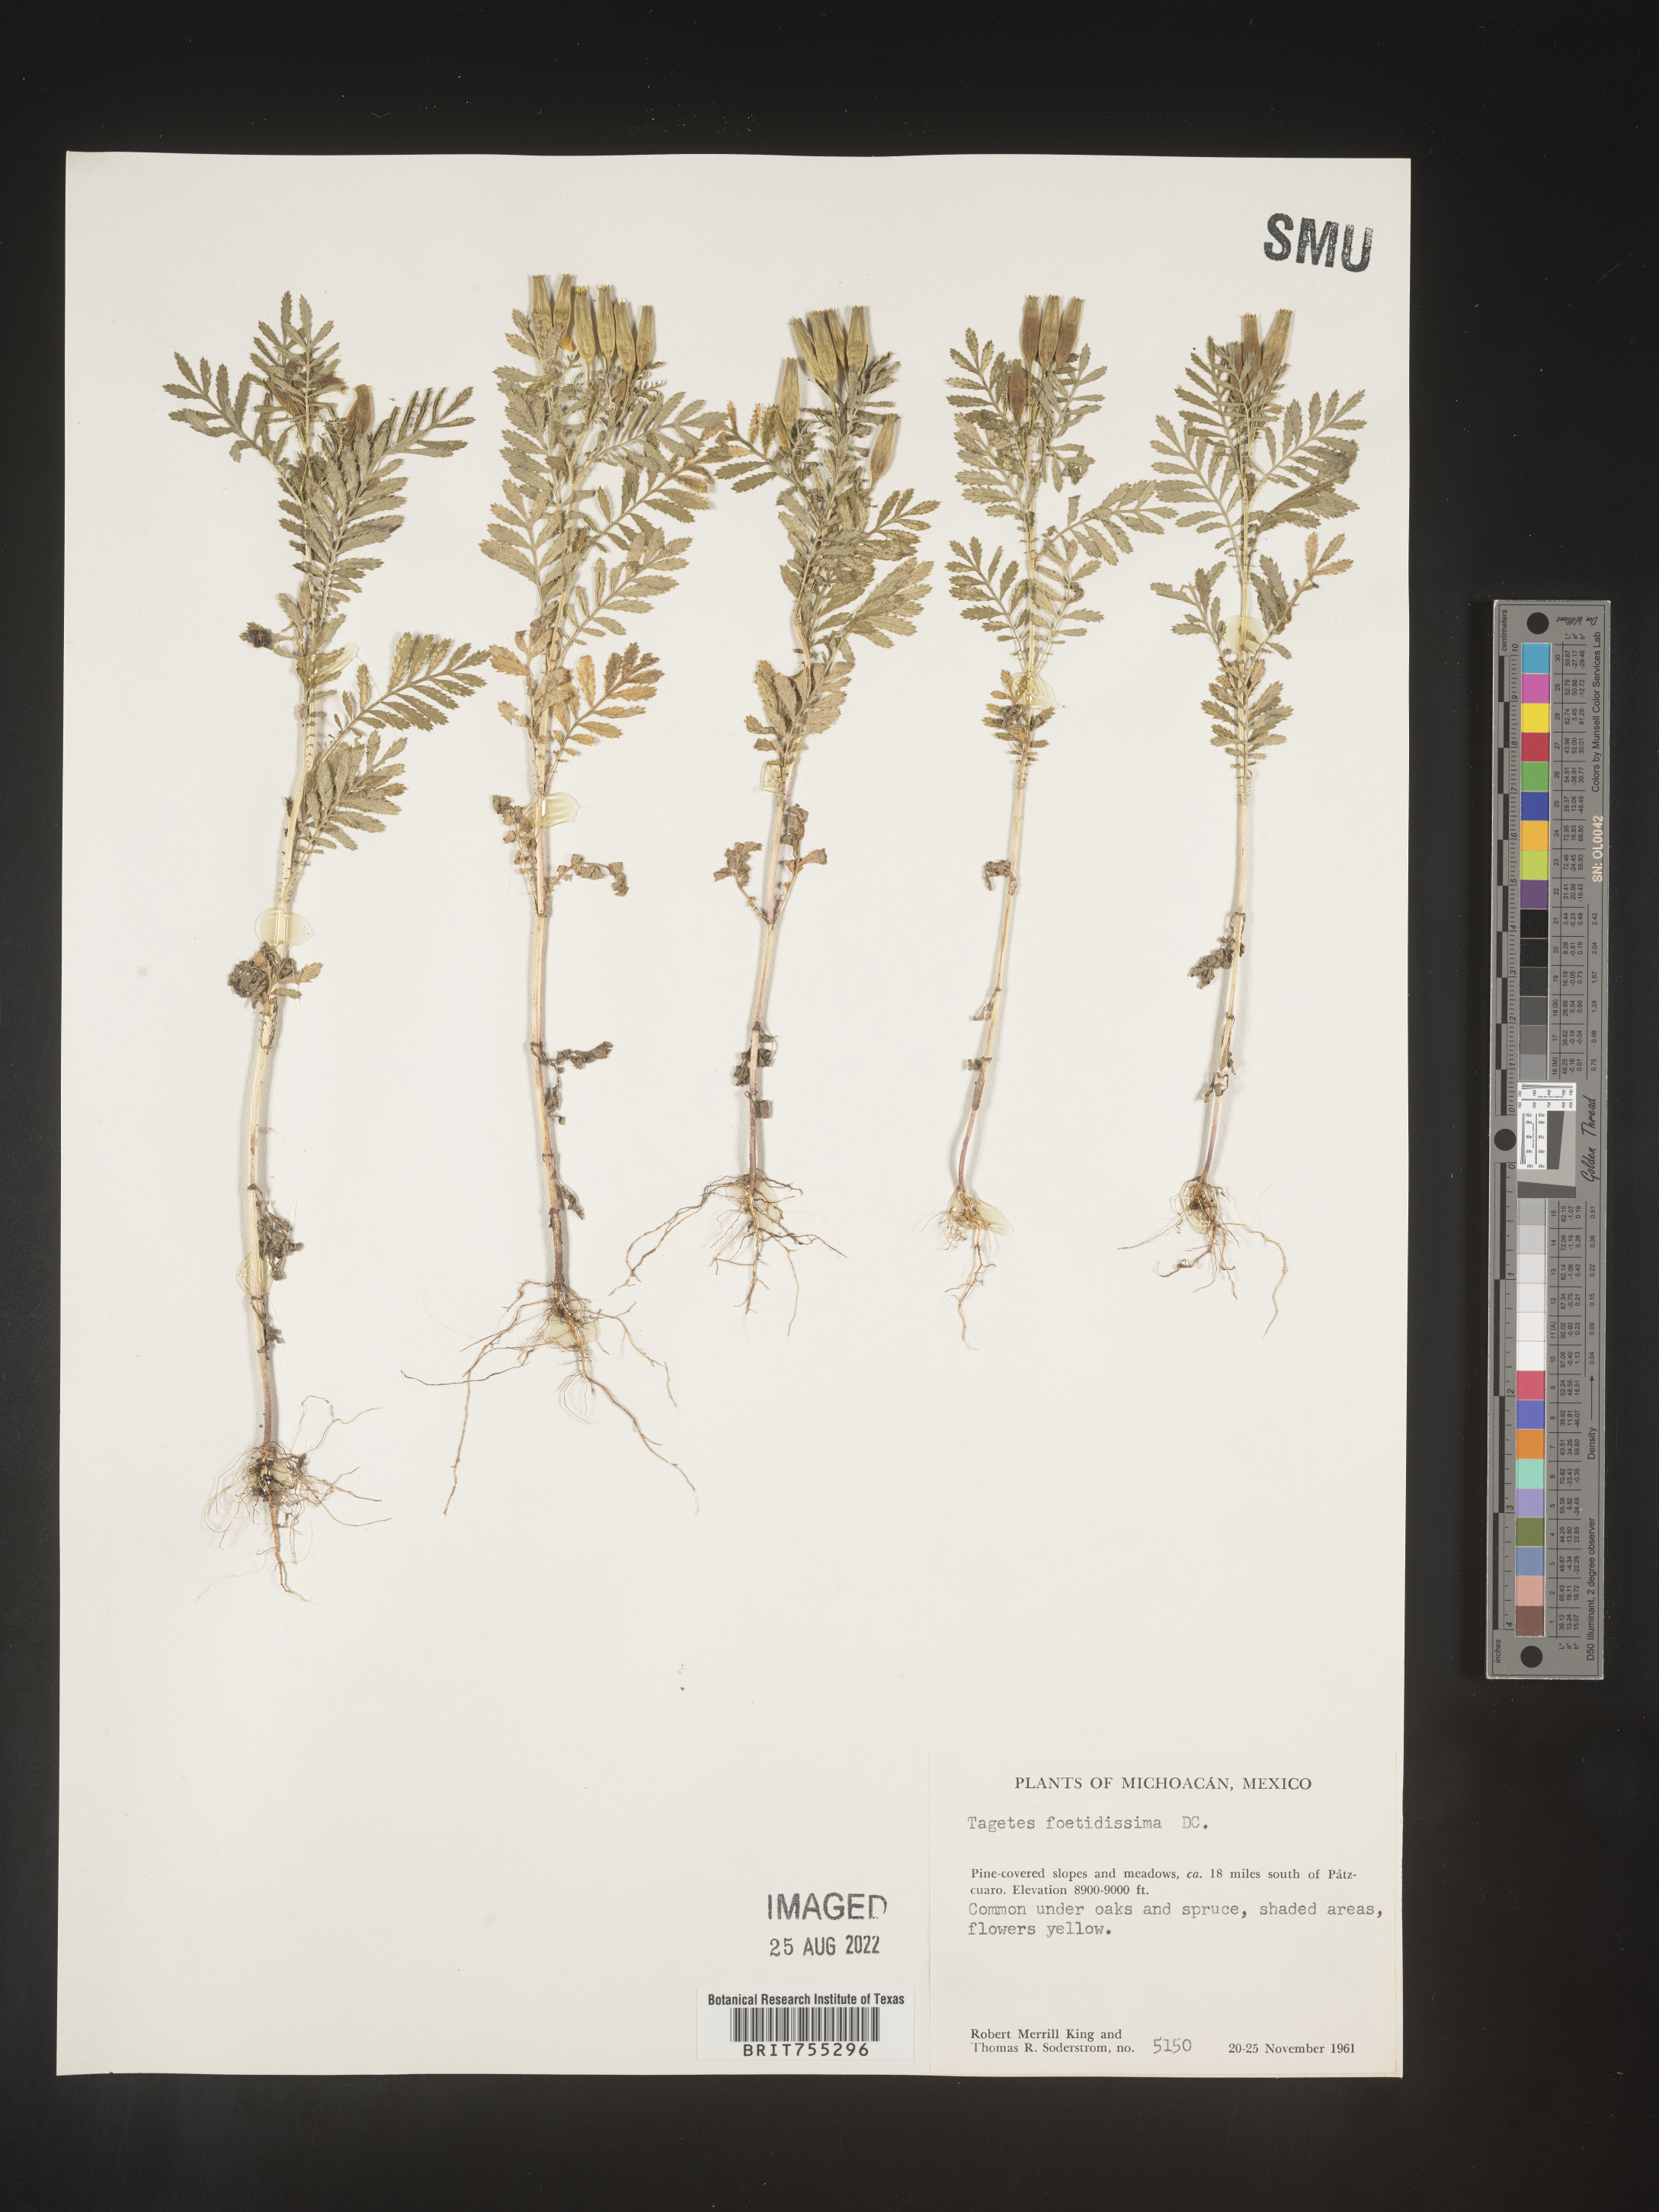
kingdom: Plantae
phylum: Tracheophyta
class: Magnoliopsida
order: Asterales
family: Asteraceae
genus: Tagetes
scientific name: Tagetes
